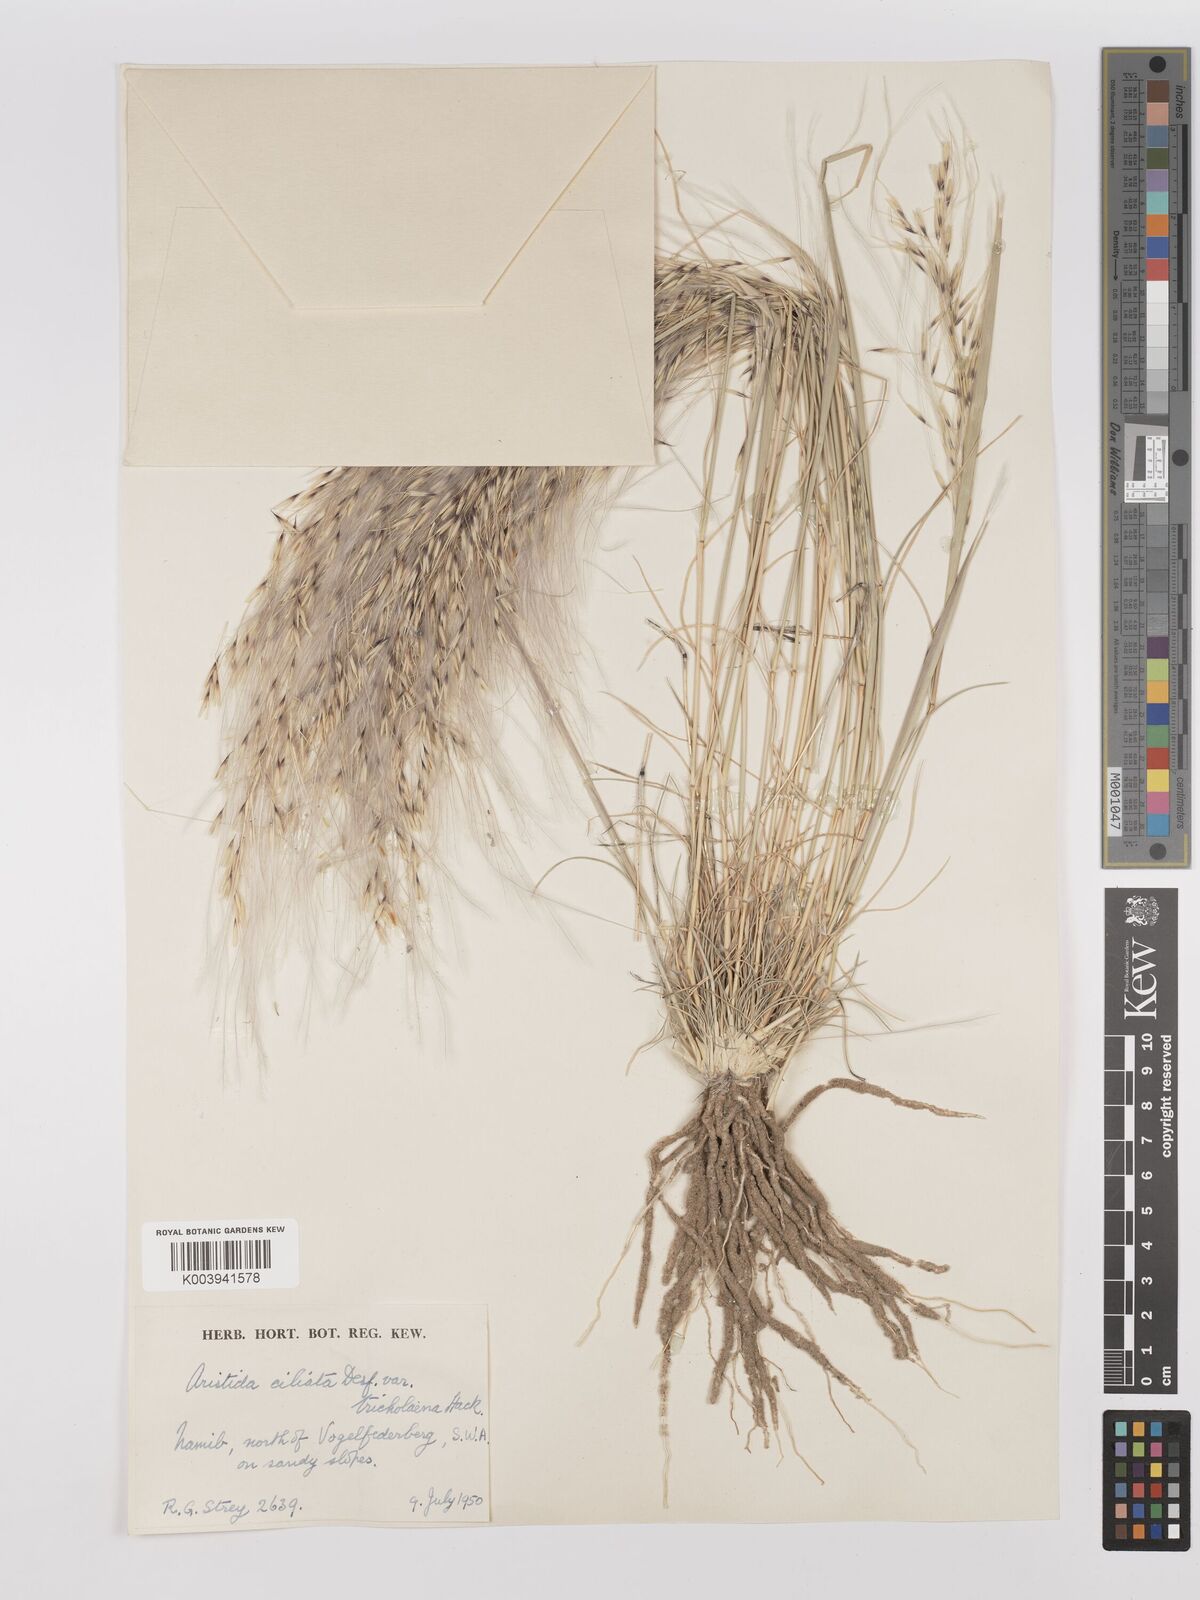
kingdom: Plantae
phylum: Tracheophyta
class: Liliopsida
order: Poales
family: Poaceae
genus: Stipagrostis
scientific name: Stipagrostis ciliata
